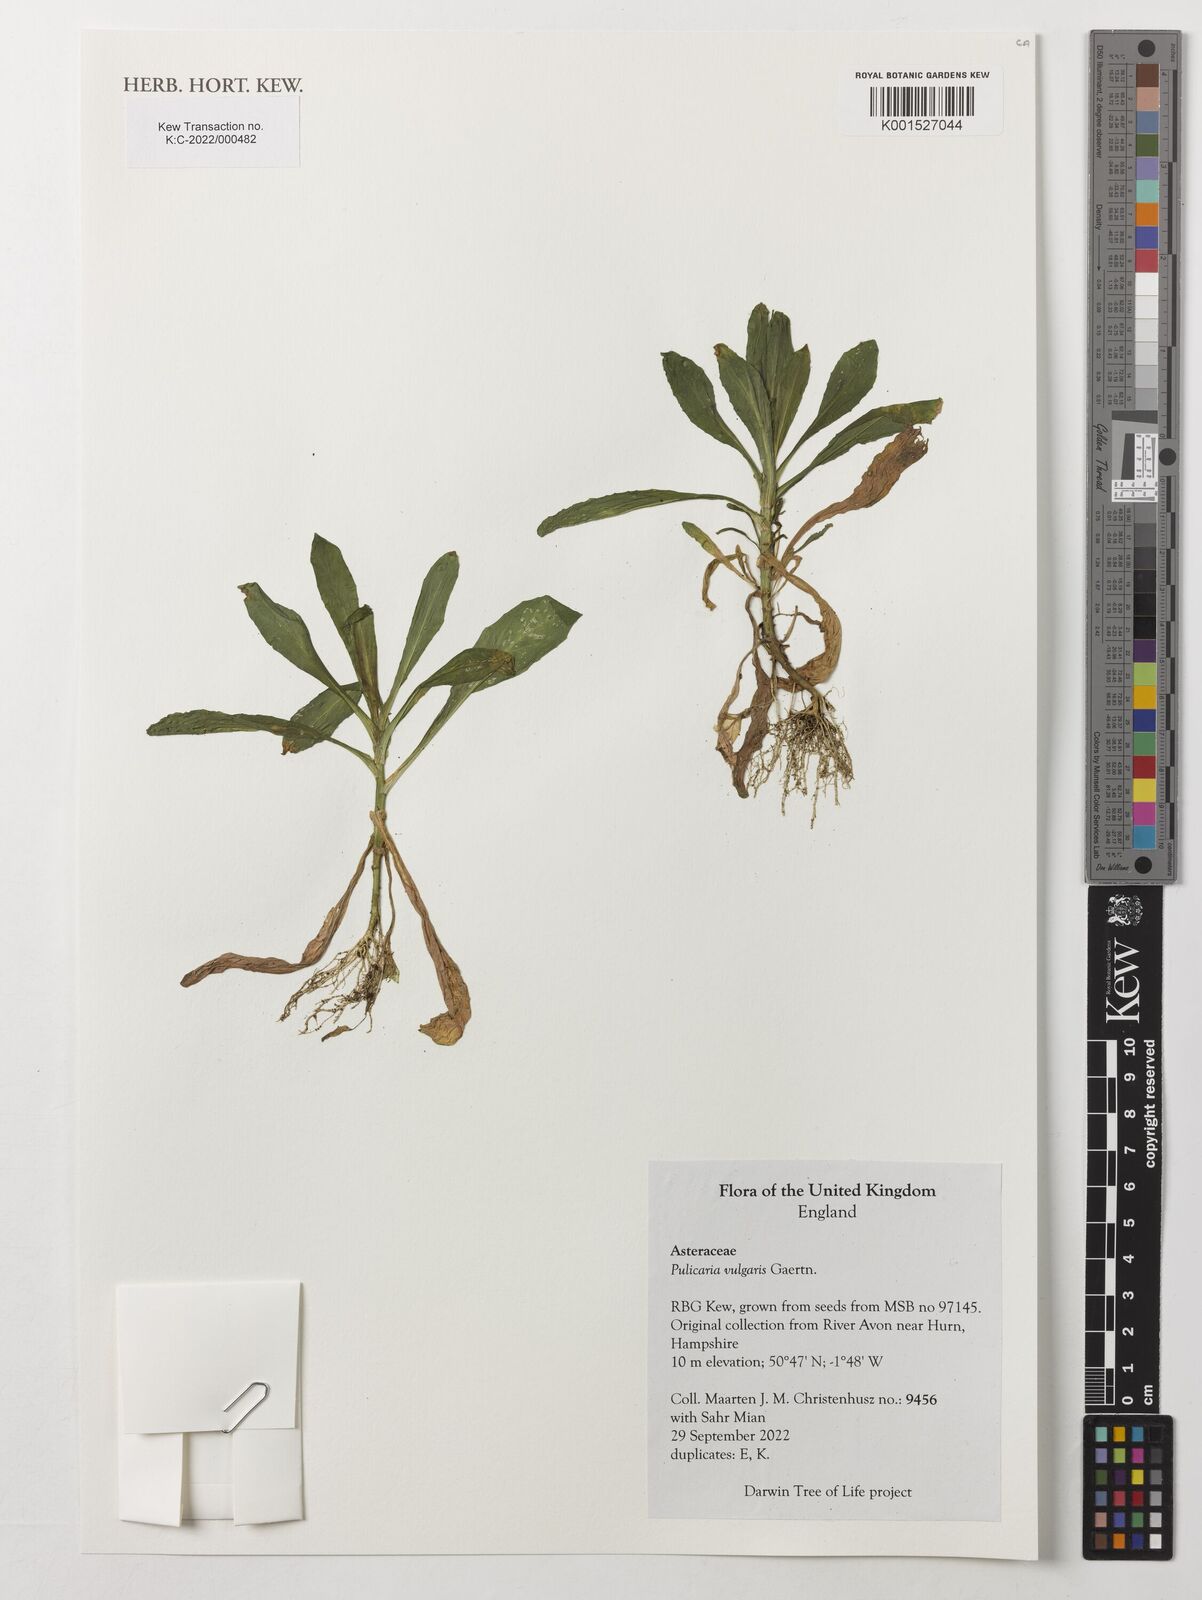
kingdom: Plantae
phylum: Tracheophyta
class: Magnoliopsida
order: Asterales
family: Asteraceae
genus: Pulicaria
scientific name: Pulicaria vulgaris
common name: Small fleabane
